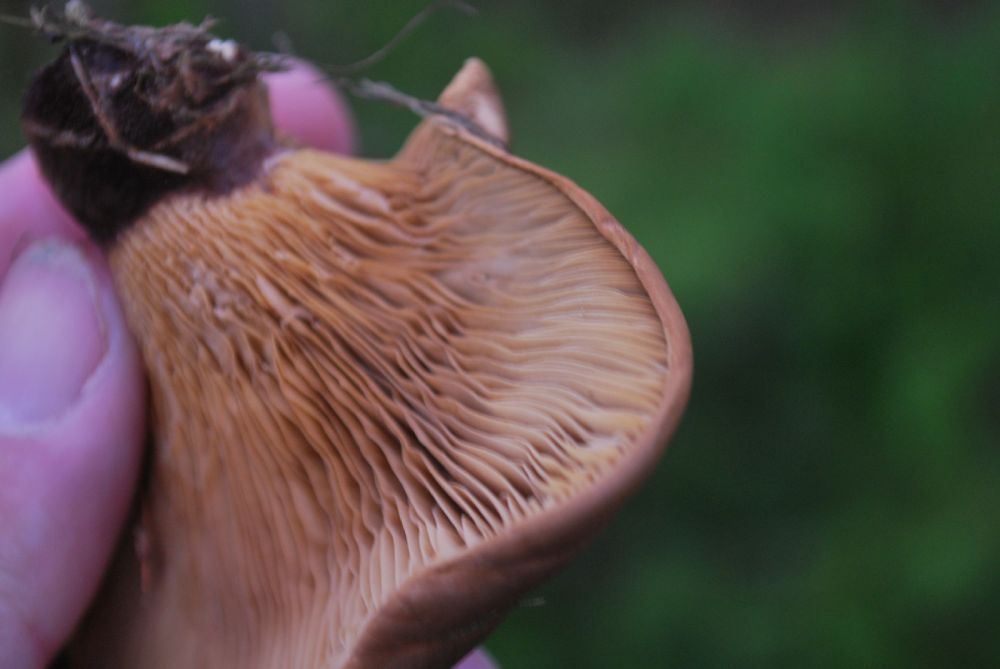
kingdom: Fungi
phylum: Basidiomycota
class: Agaricomycetes
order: Boletales
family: Tapinellaceae
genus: Tapinella
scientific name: Tapinella atrotomentosa
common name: sortfiltet viftesvamp
